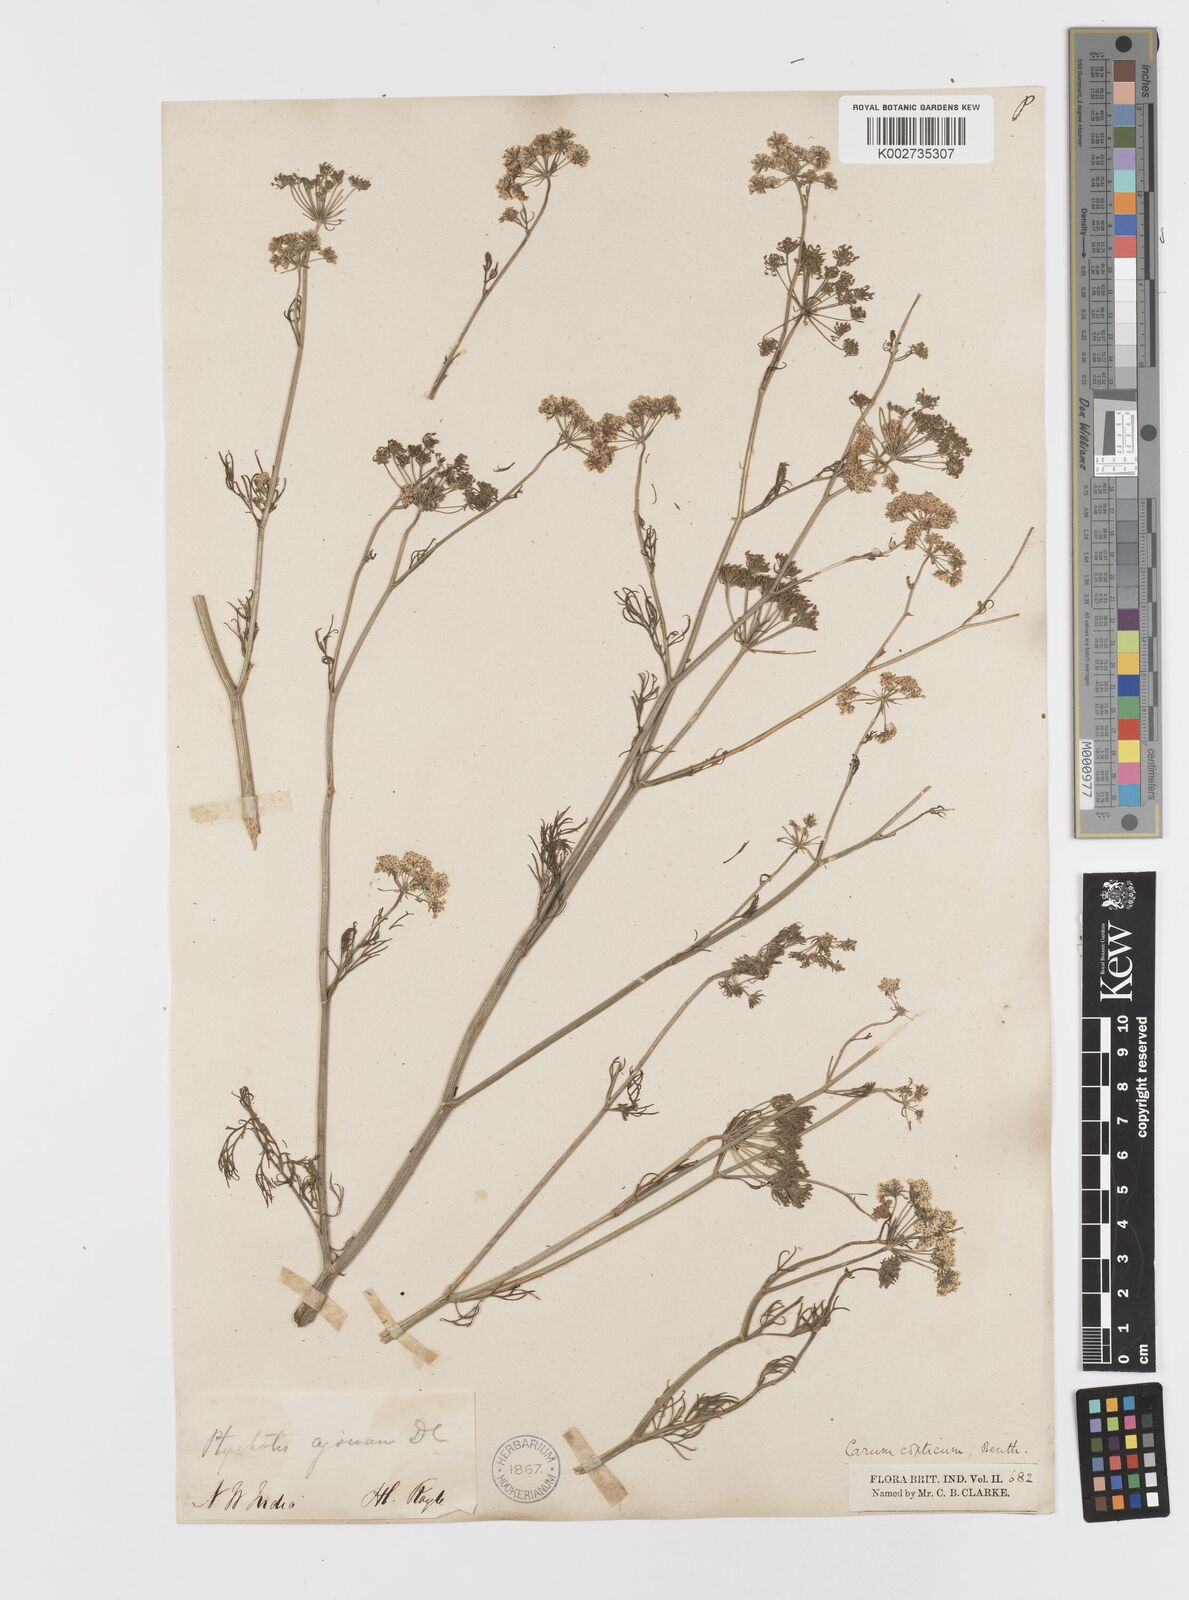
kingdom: Plantae
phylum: Tracheophyta
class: Magnoliopsida
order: Apiales
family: Apiaceae
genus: Trachyspermum
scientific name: Trachyspermum ammi
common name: Ajowan
